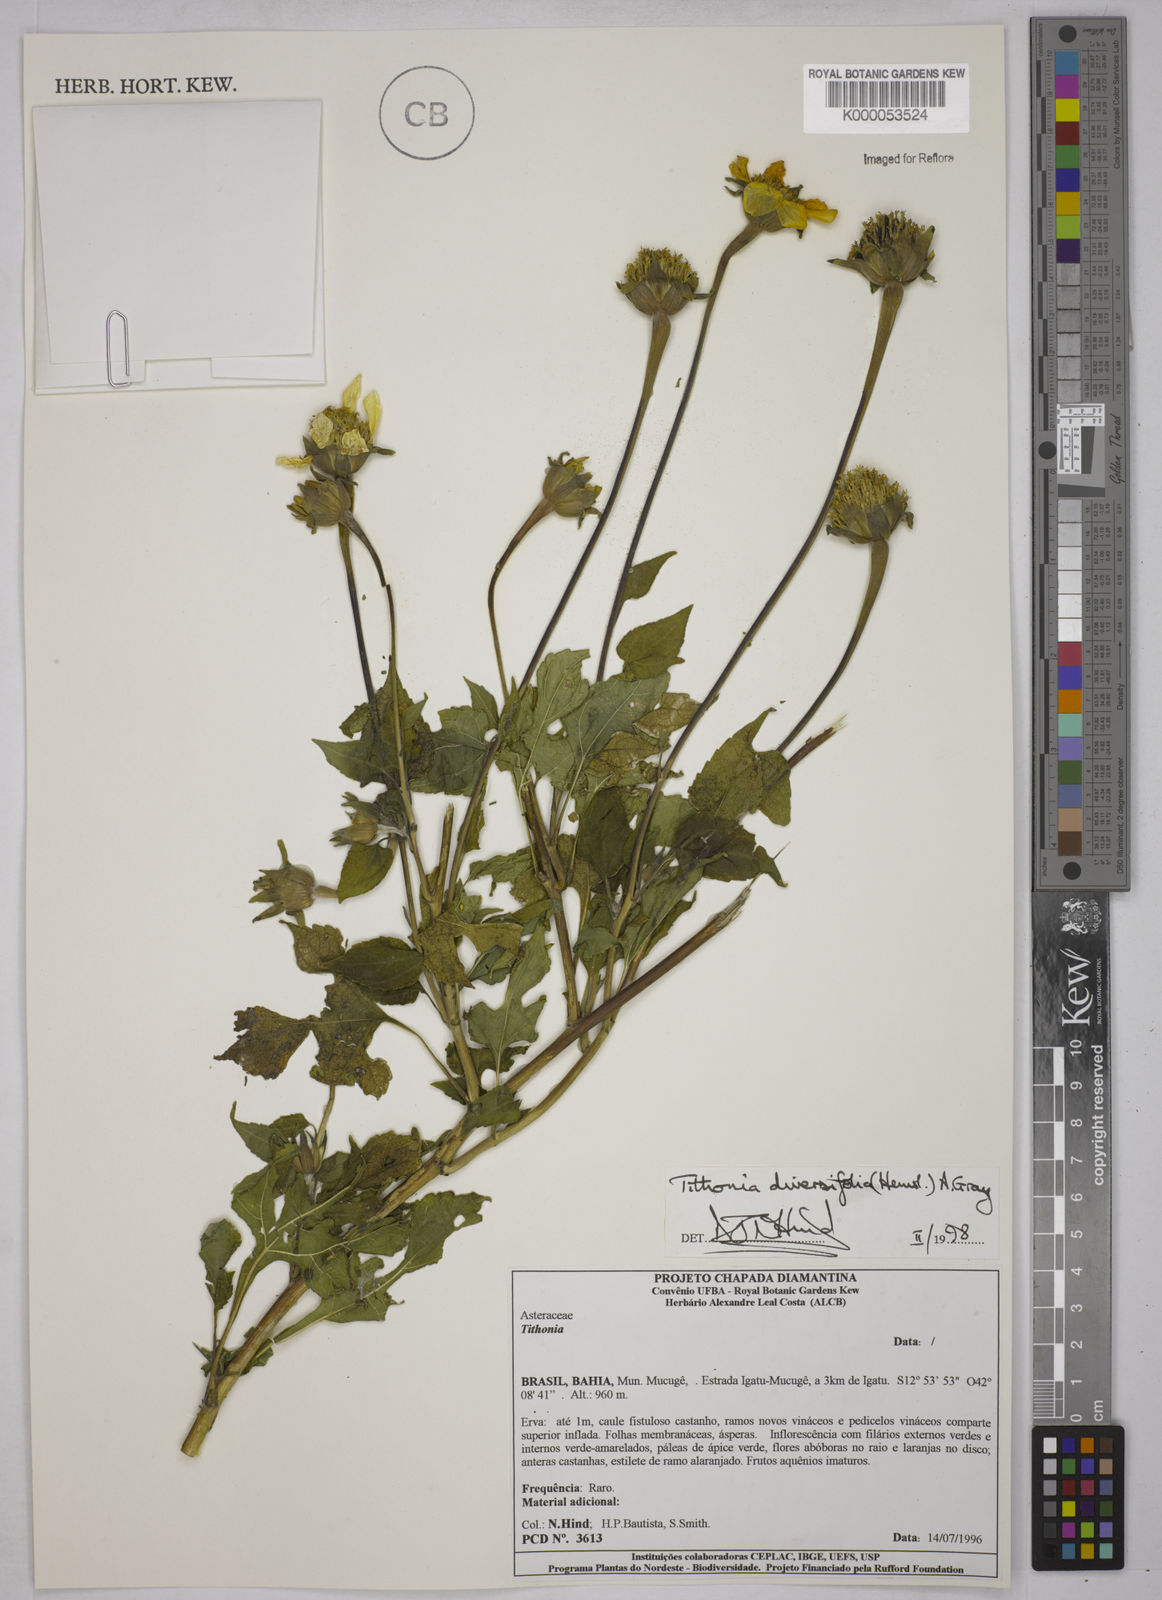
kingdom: Plantae
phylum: Tracheophyta
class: Magnoliopsida
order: Asterales
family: Asteraceae
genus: Tithonia
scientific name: Tithonia diversifolia
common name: Tree marigold
